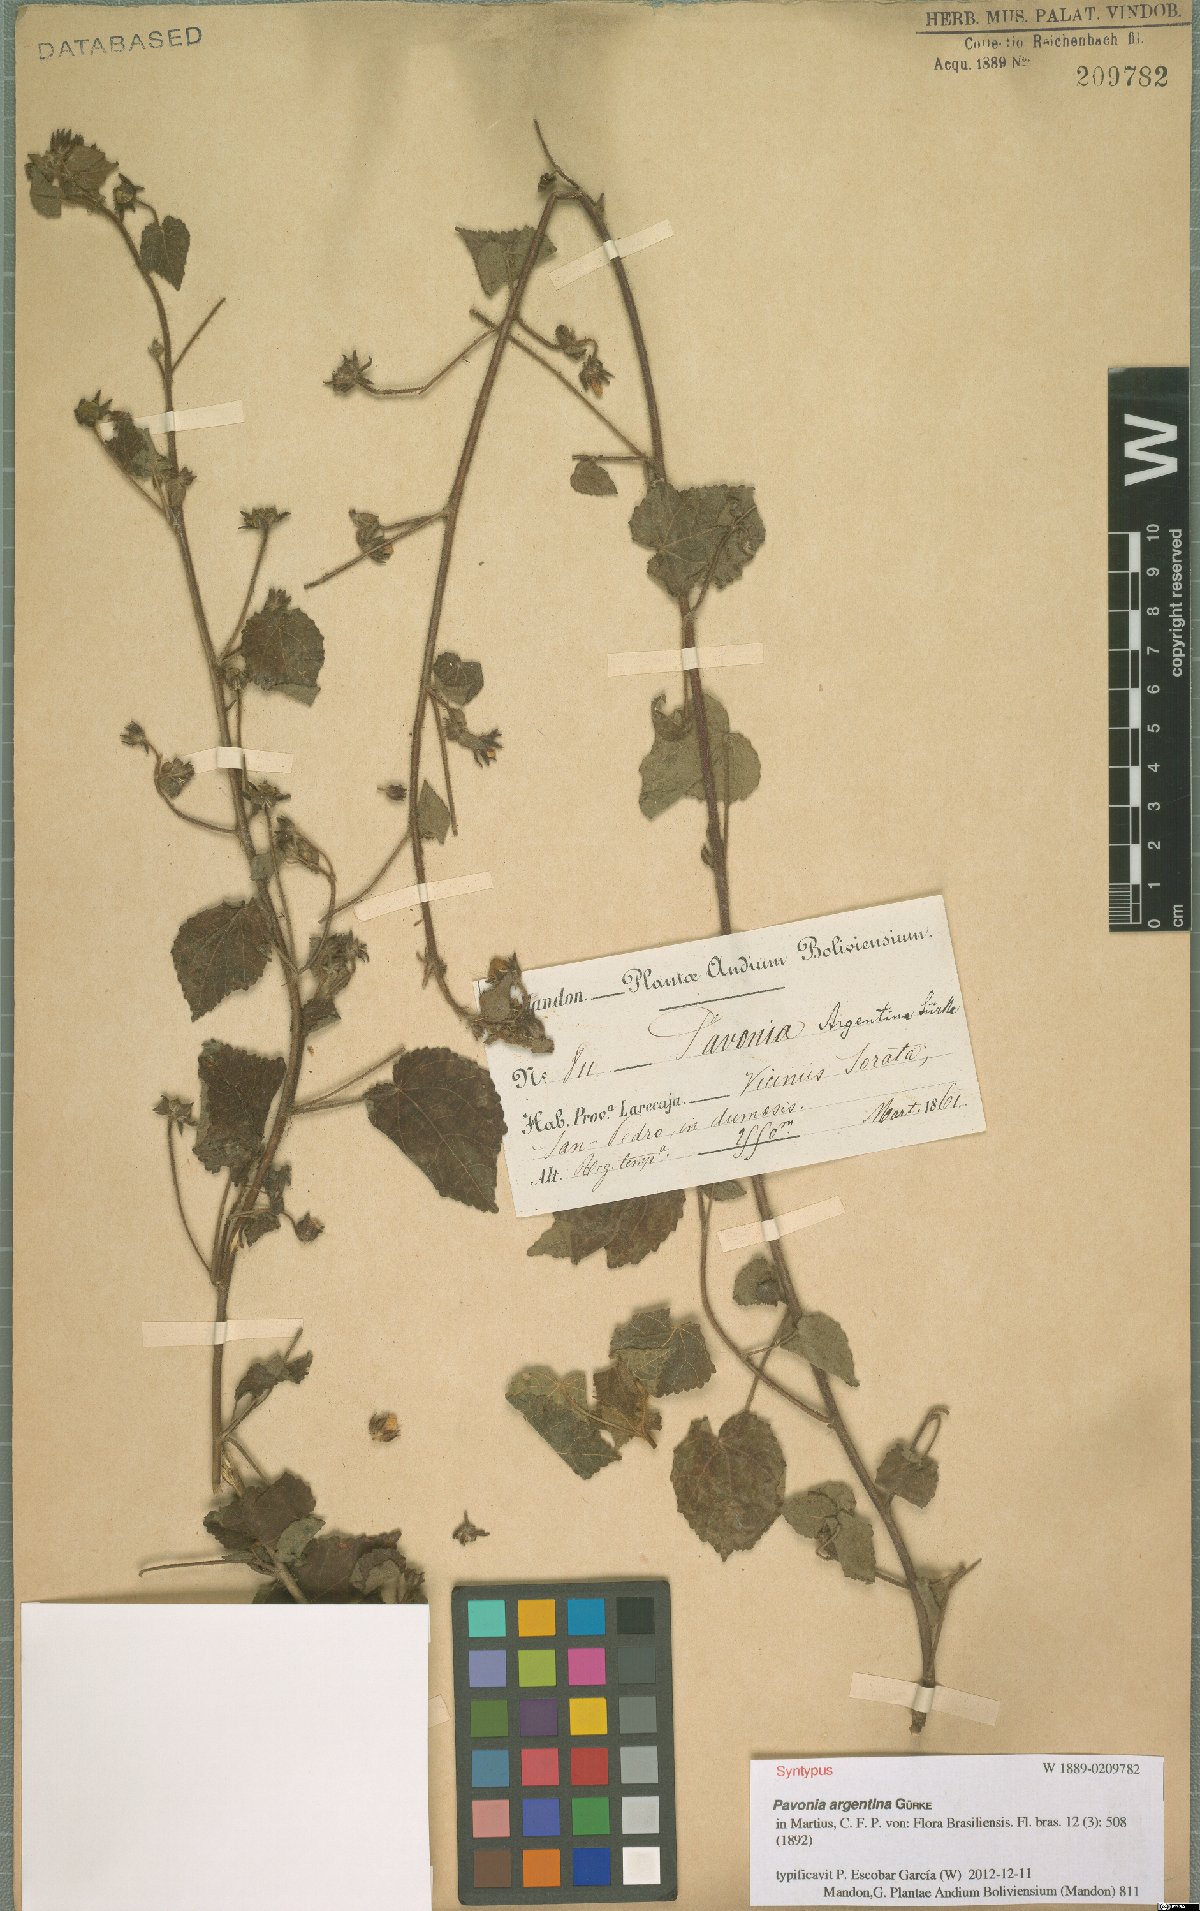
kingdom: Plantae
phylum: Tracheophyta
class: Magnoliopsida
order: Malvales
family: Malvaceae
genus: Pavonia
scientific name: Pavonia argentina
